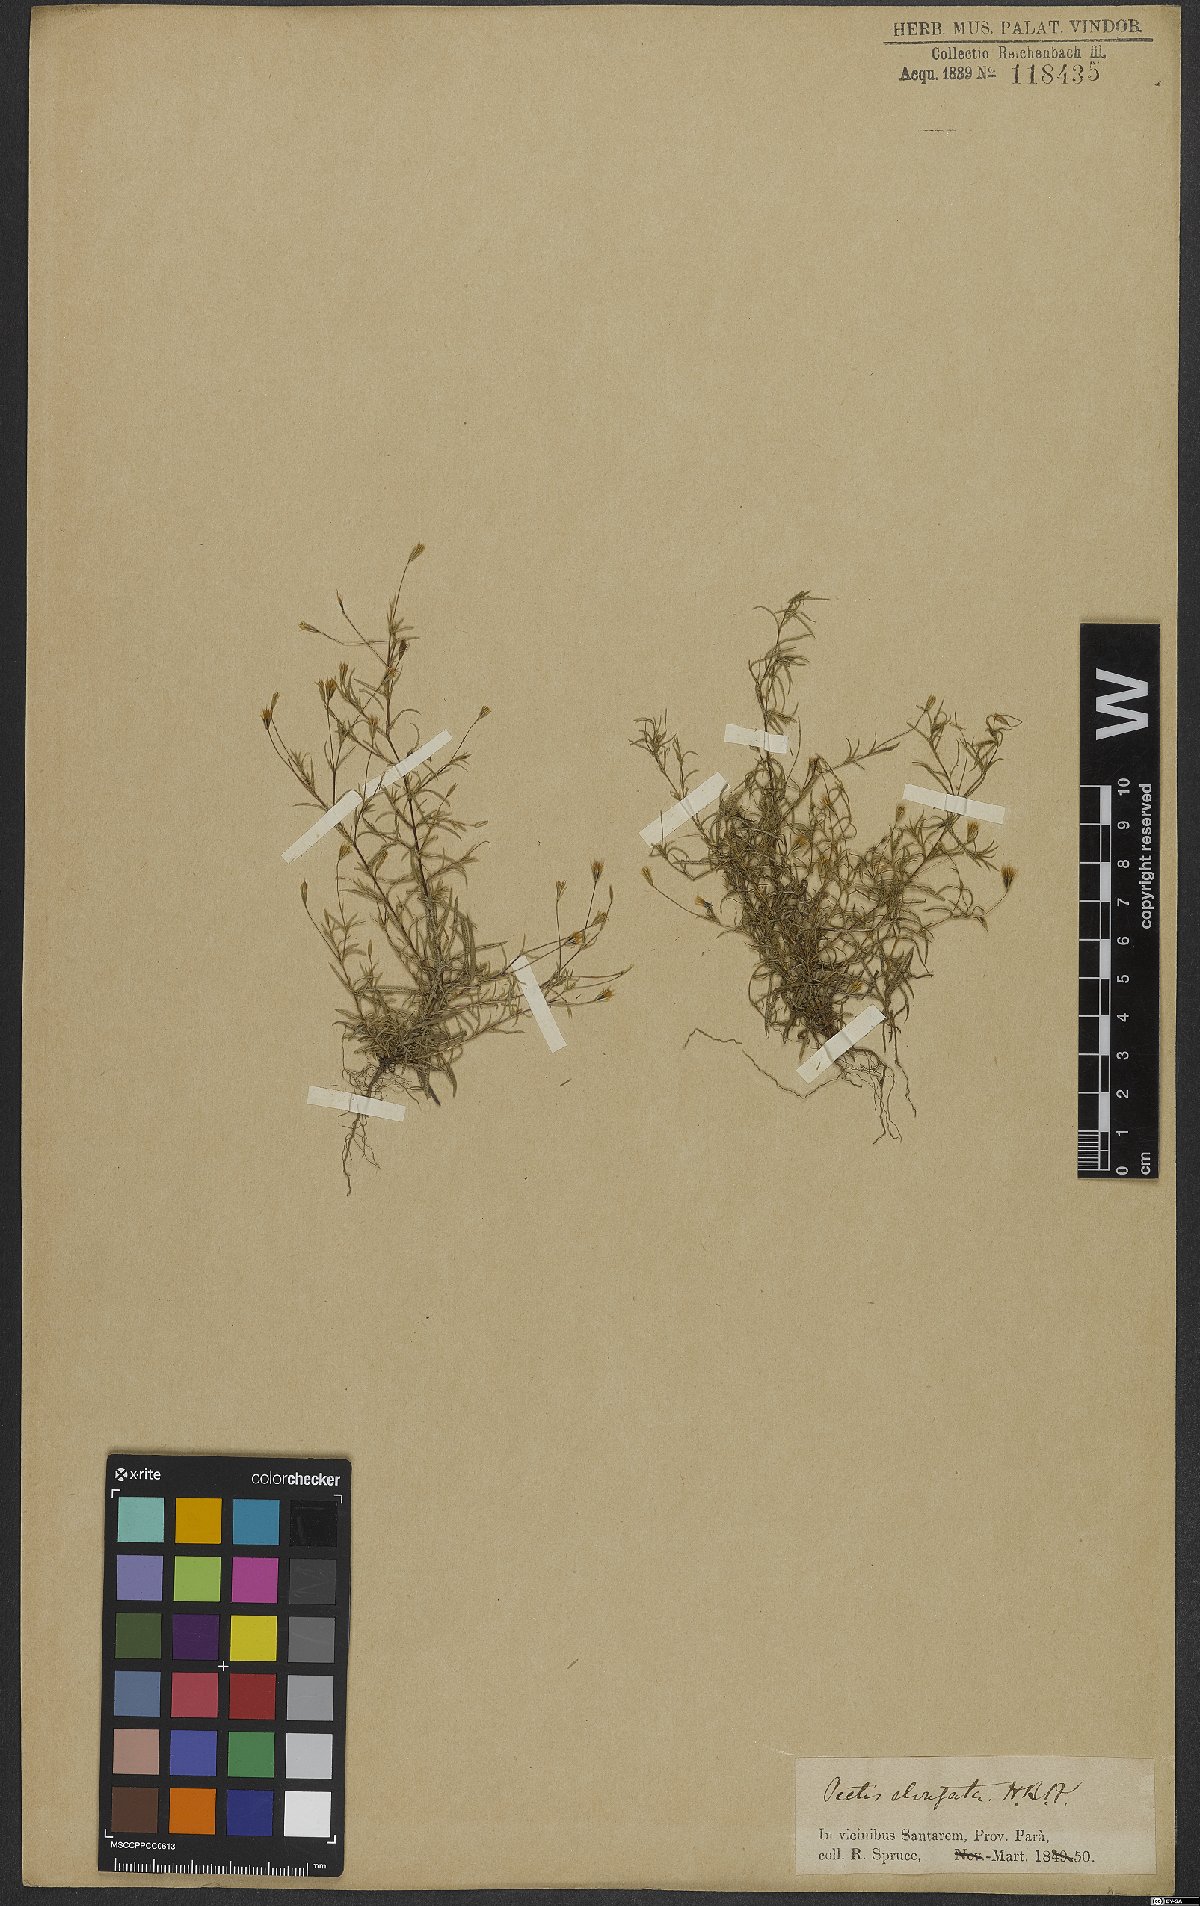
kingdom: Plantae
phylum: Tracheophyta
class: Magnoliopsida
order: Asterales
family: Asteraceae
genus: Pectis
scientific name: Pectis elongata
